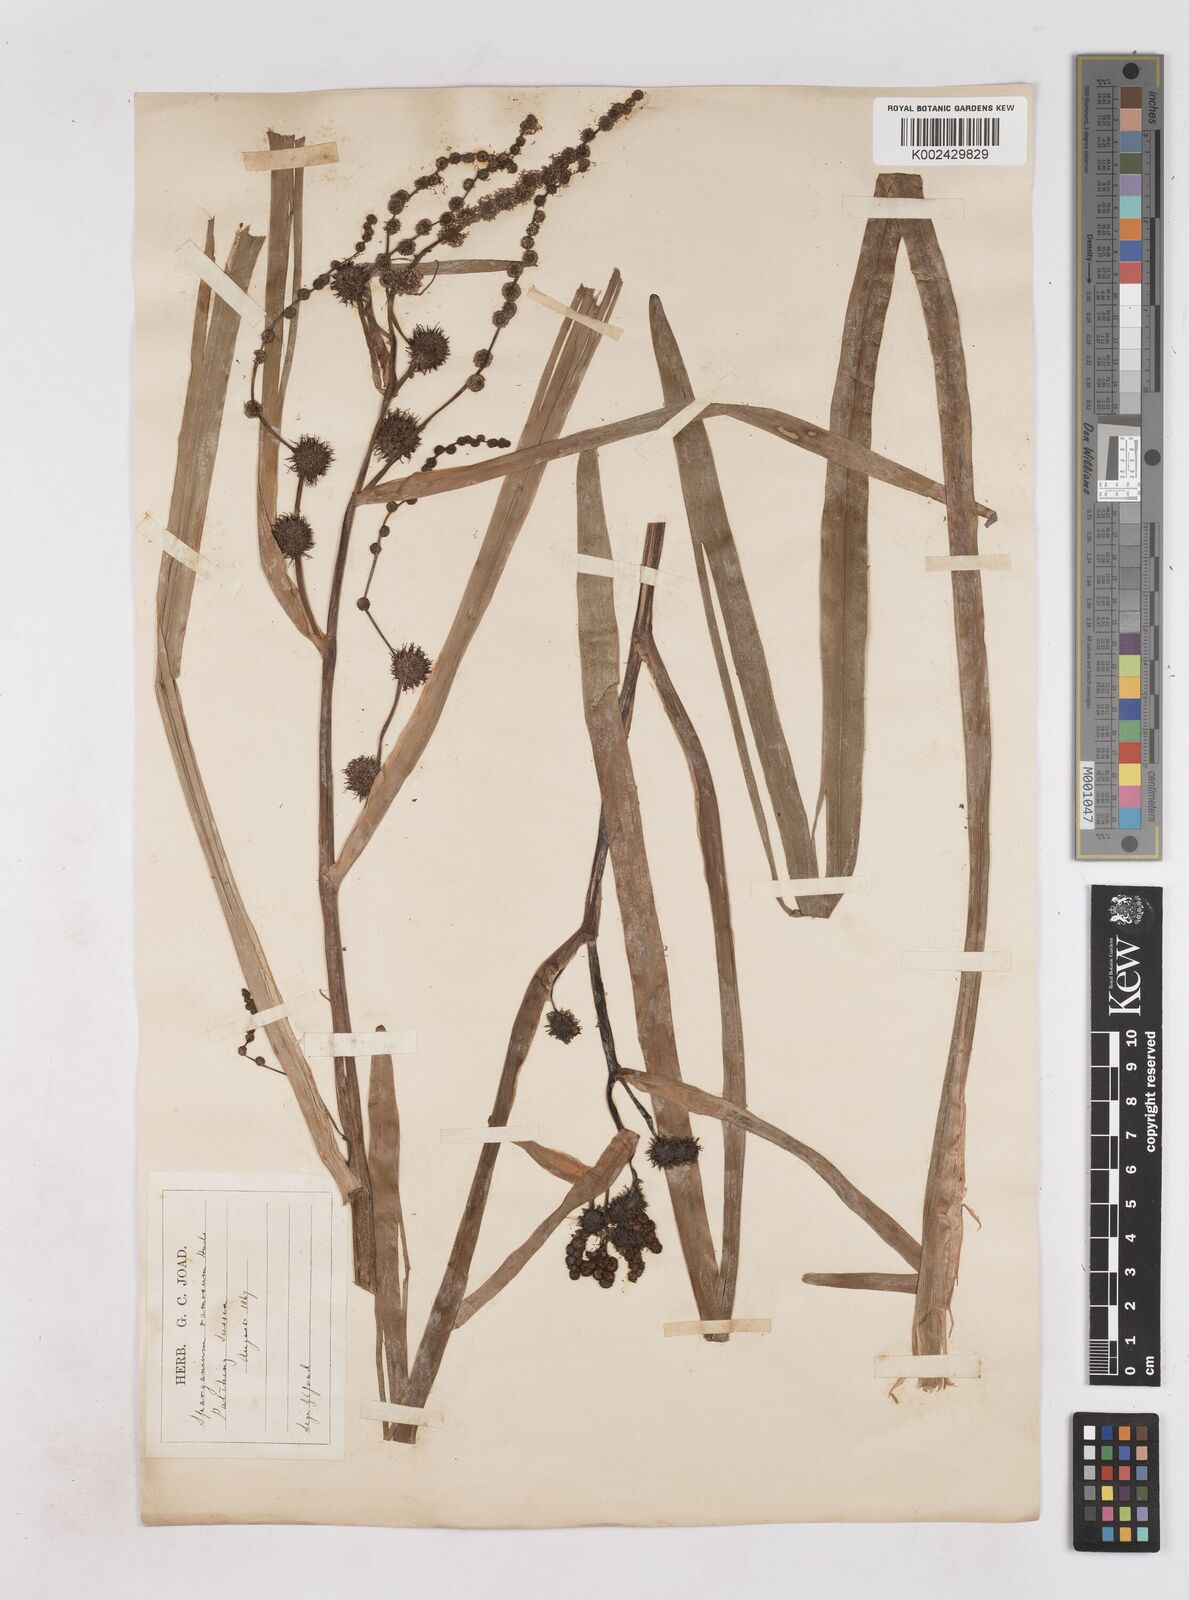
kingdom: Plantae
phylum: Tracheophyta
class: Liliopsida
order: Poales
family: Typhaceae
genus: Sparganium
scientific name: Sparganium erectum
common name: Branched bur-reed
